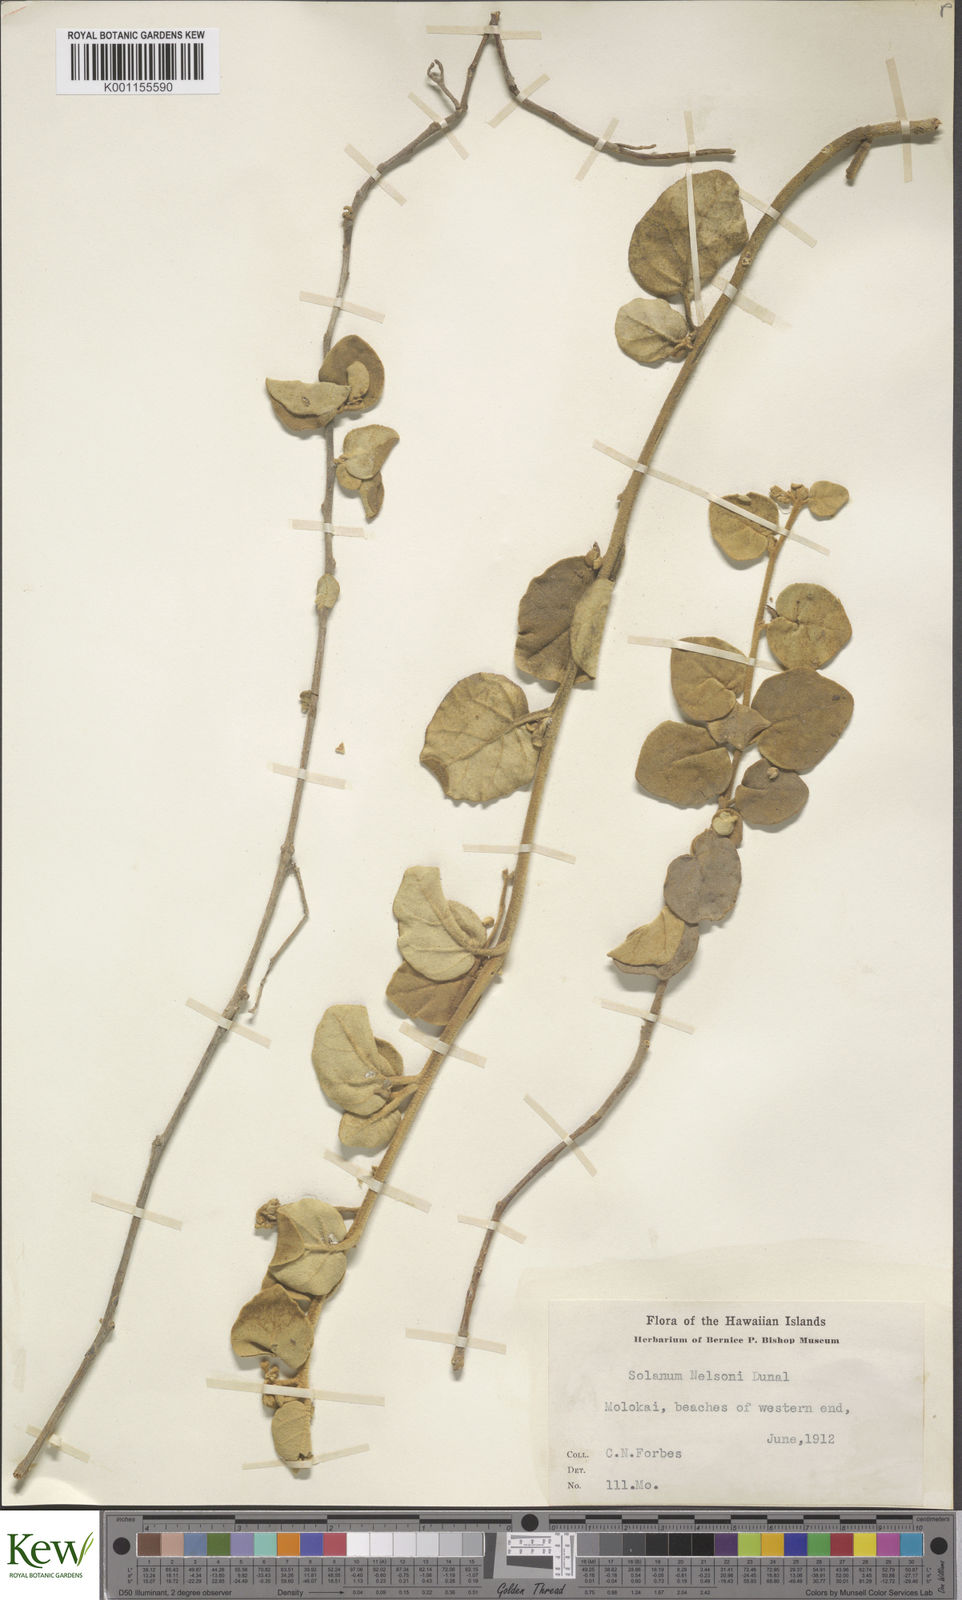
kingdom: Plantae
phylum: Tracheophyta
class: Magnoliopsida
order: Solanales
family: Solanaceae
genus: Solanum
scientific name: Solanum nelsonii
